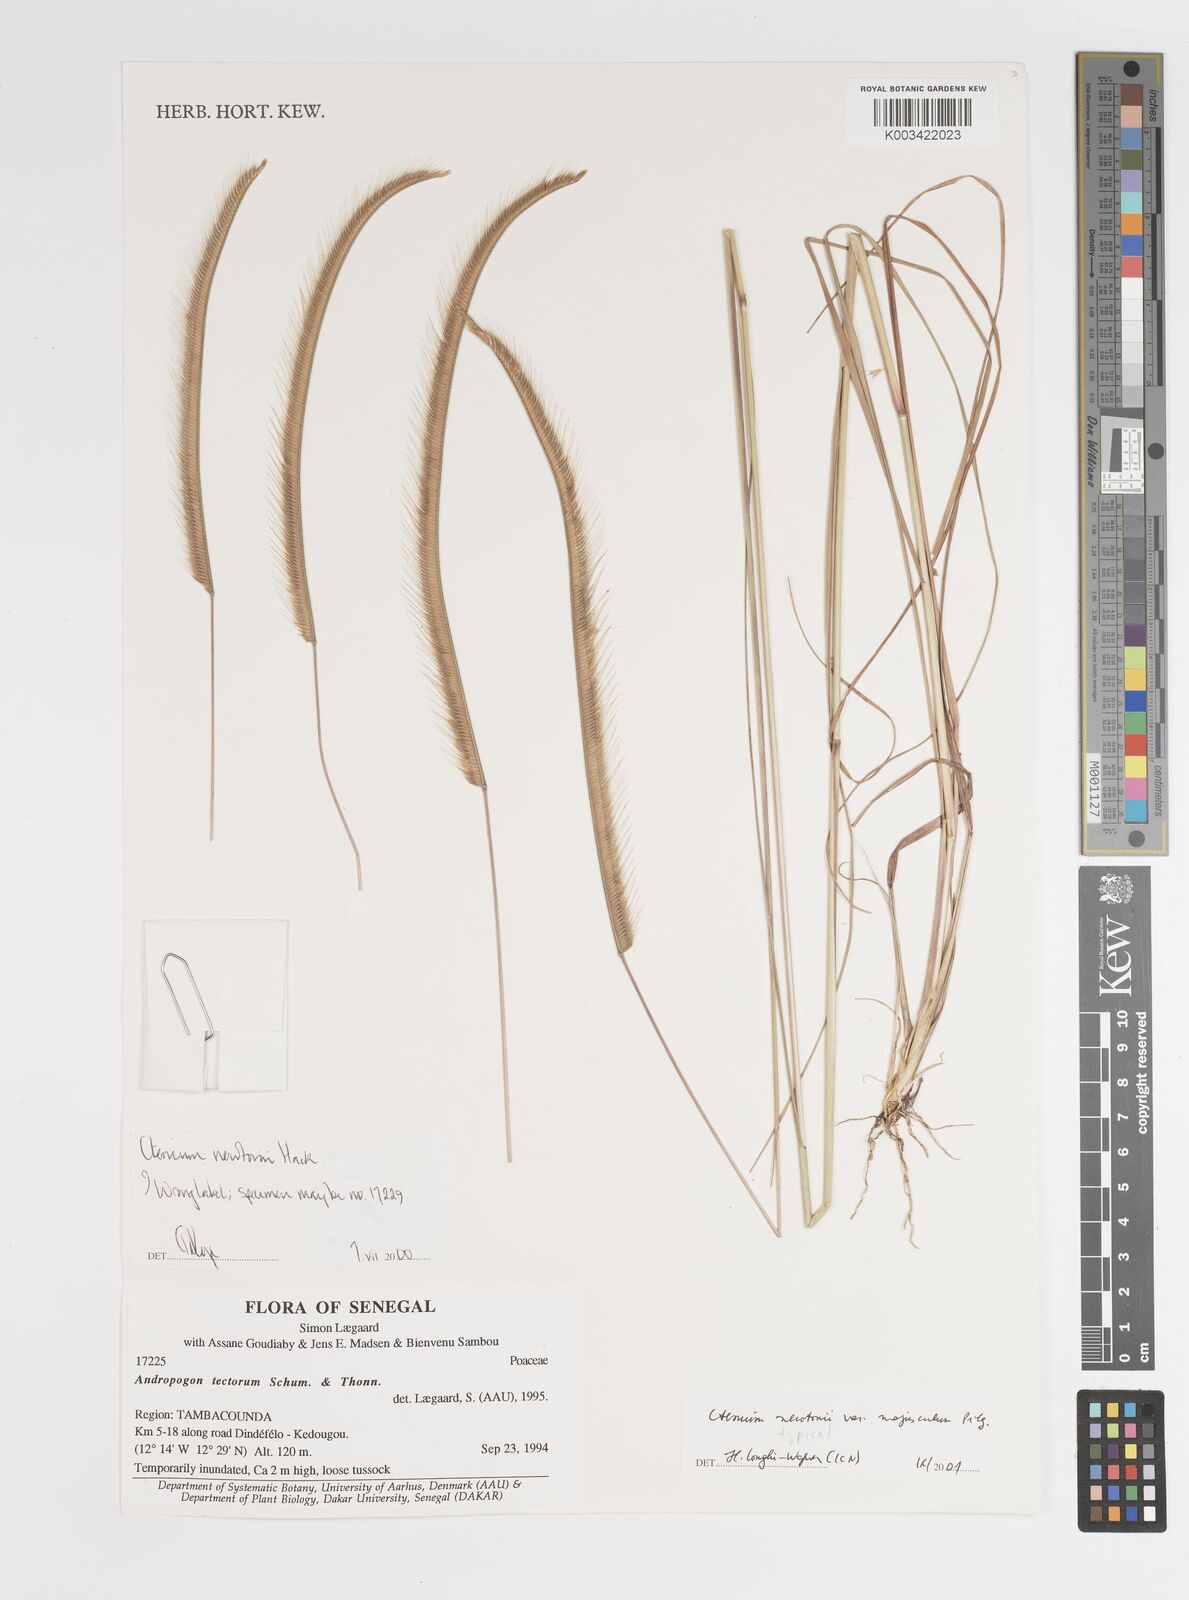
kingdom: Plantae
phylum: Tracheophyta
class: Liliopsida
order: Poales
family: Poaceae
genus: Ctenium
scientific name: Ctenium newtonii
